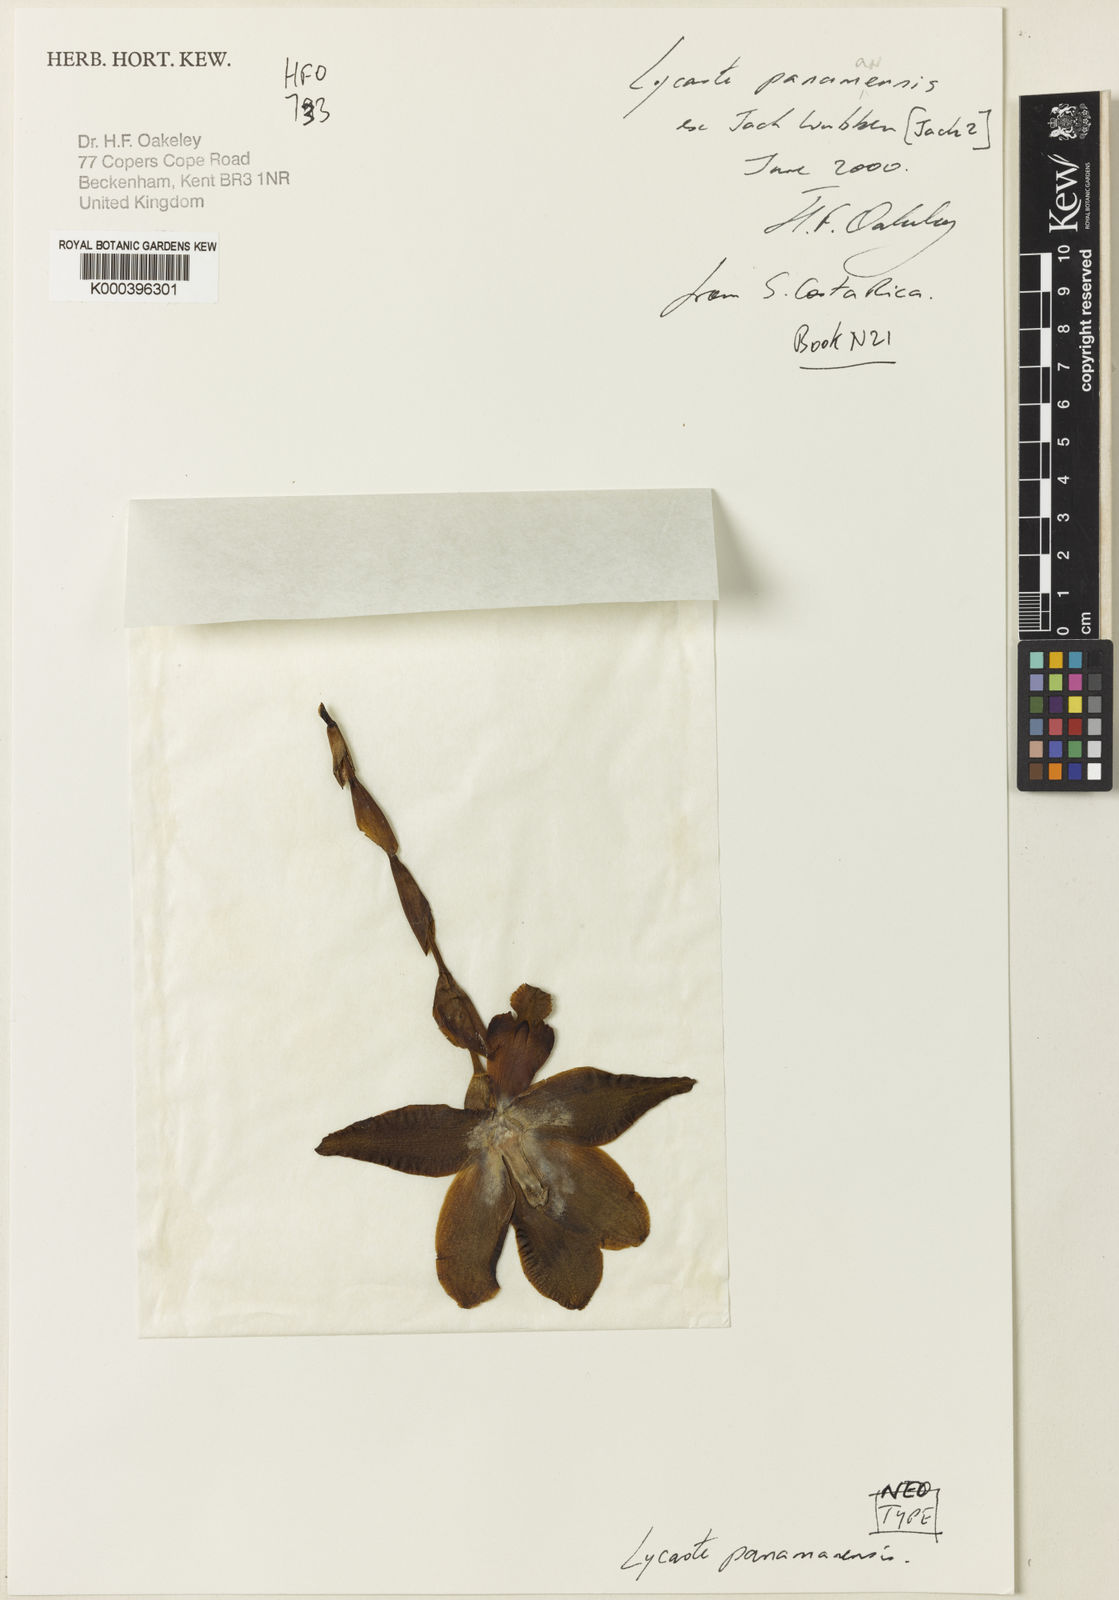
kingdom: Plantae
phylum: Tracheophyta
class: Liliopsida
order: Asparagales
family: Orchidaceae
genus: Lycaste
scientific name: Lycaste panamanensis
